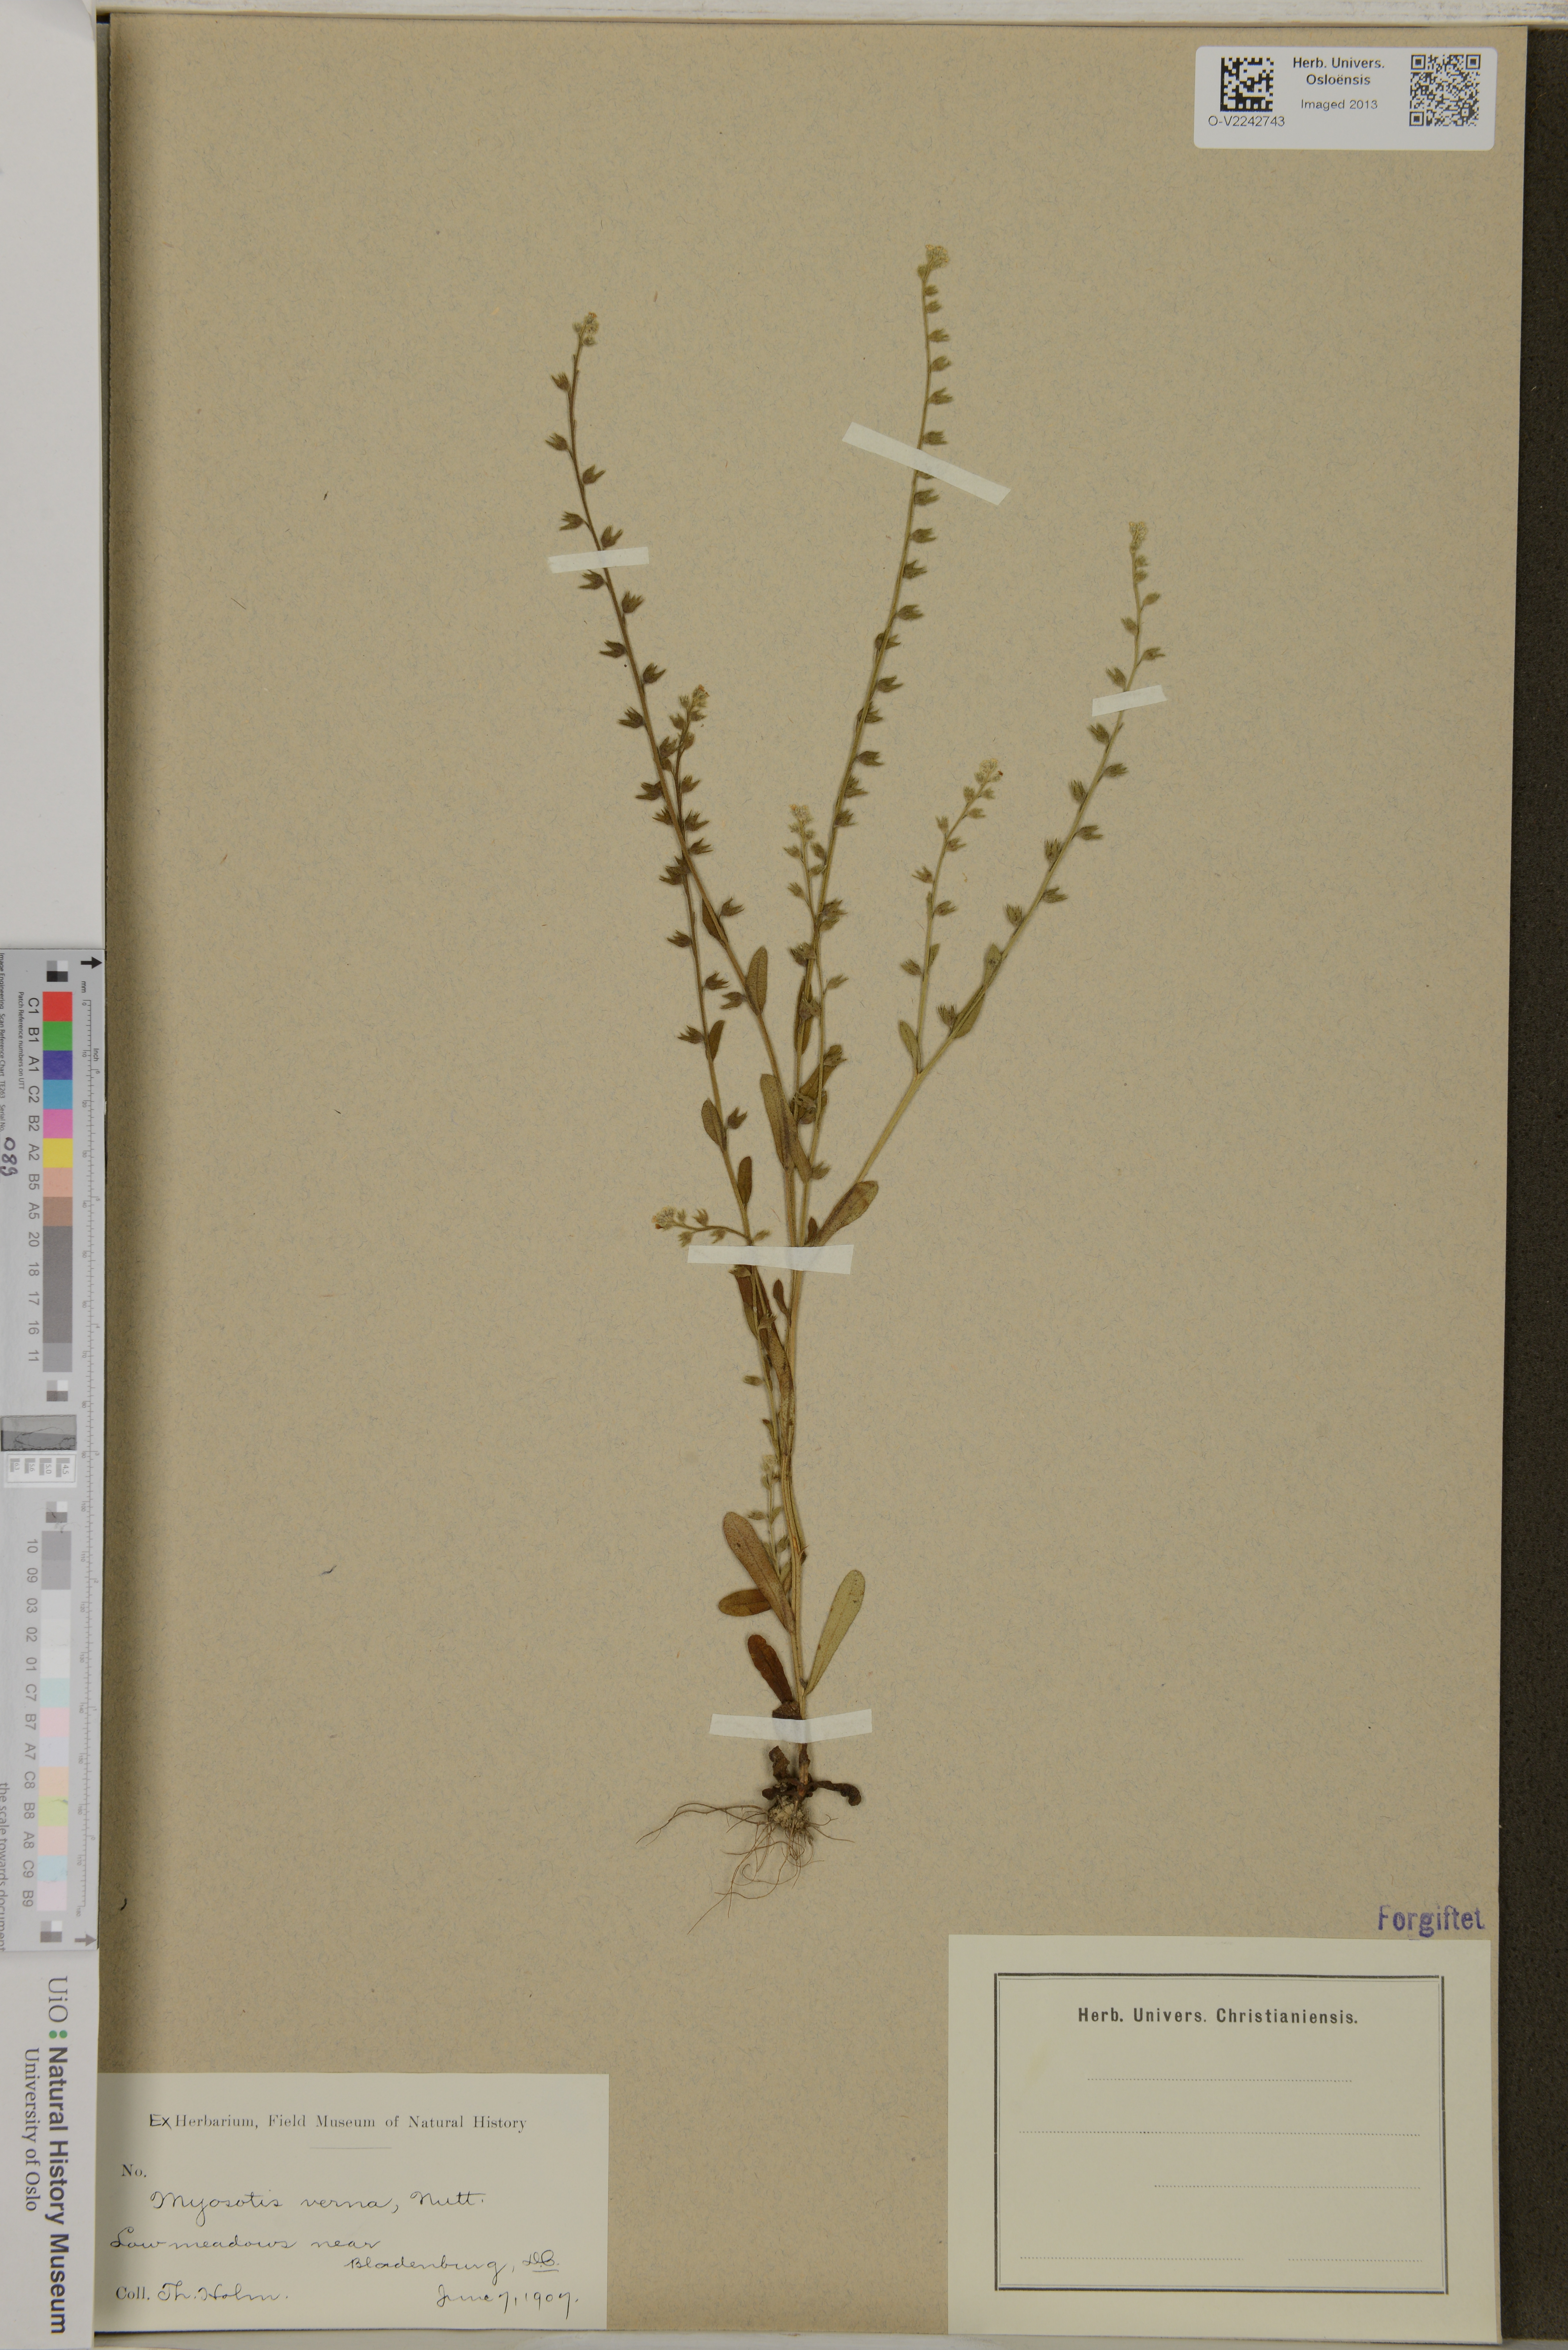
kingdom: Plantae
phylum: Tracheophyta
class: Magnoliopsida
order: Boraginales
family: Boraginaceae
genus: Myosotis
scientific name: Myosotis verna
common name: Early forget-me-not
